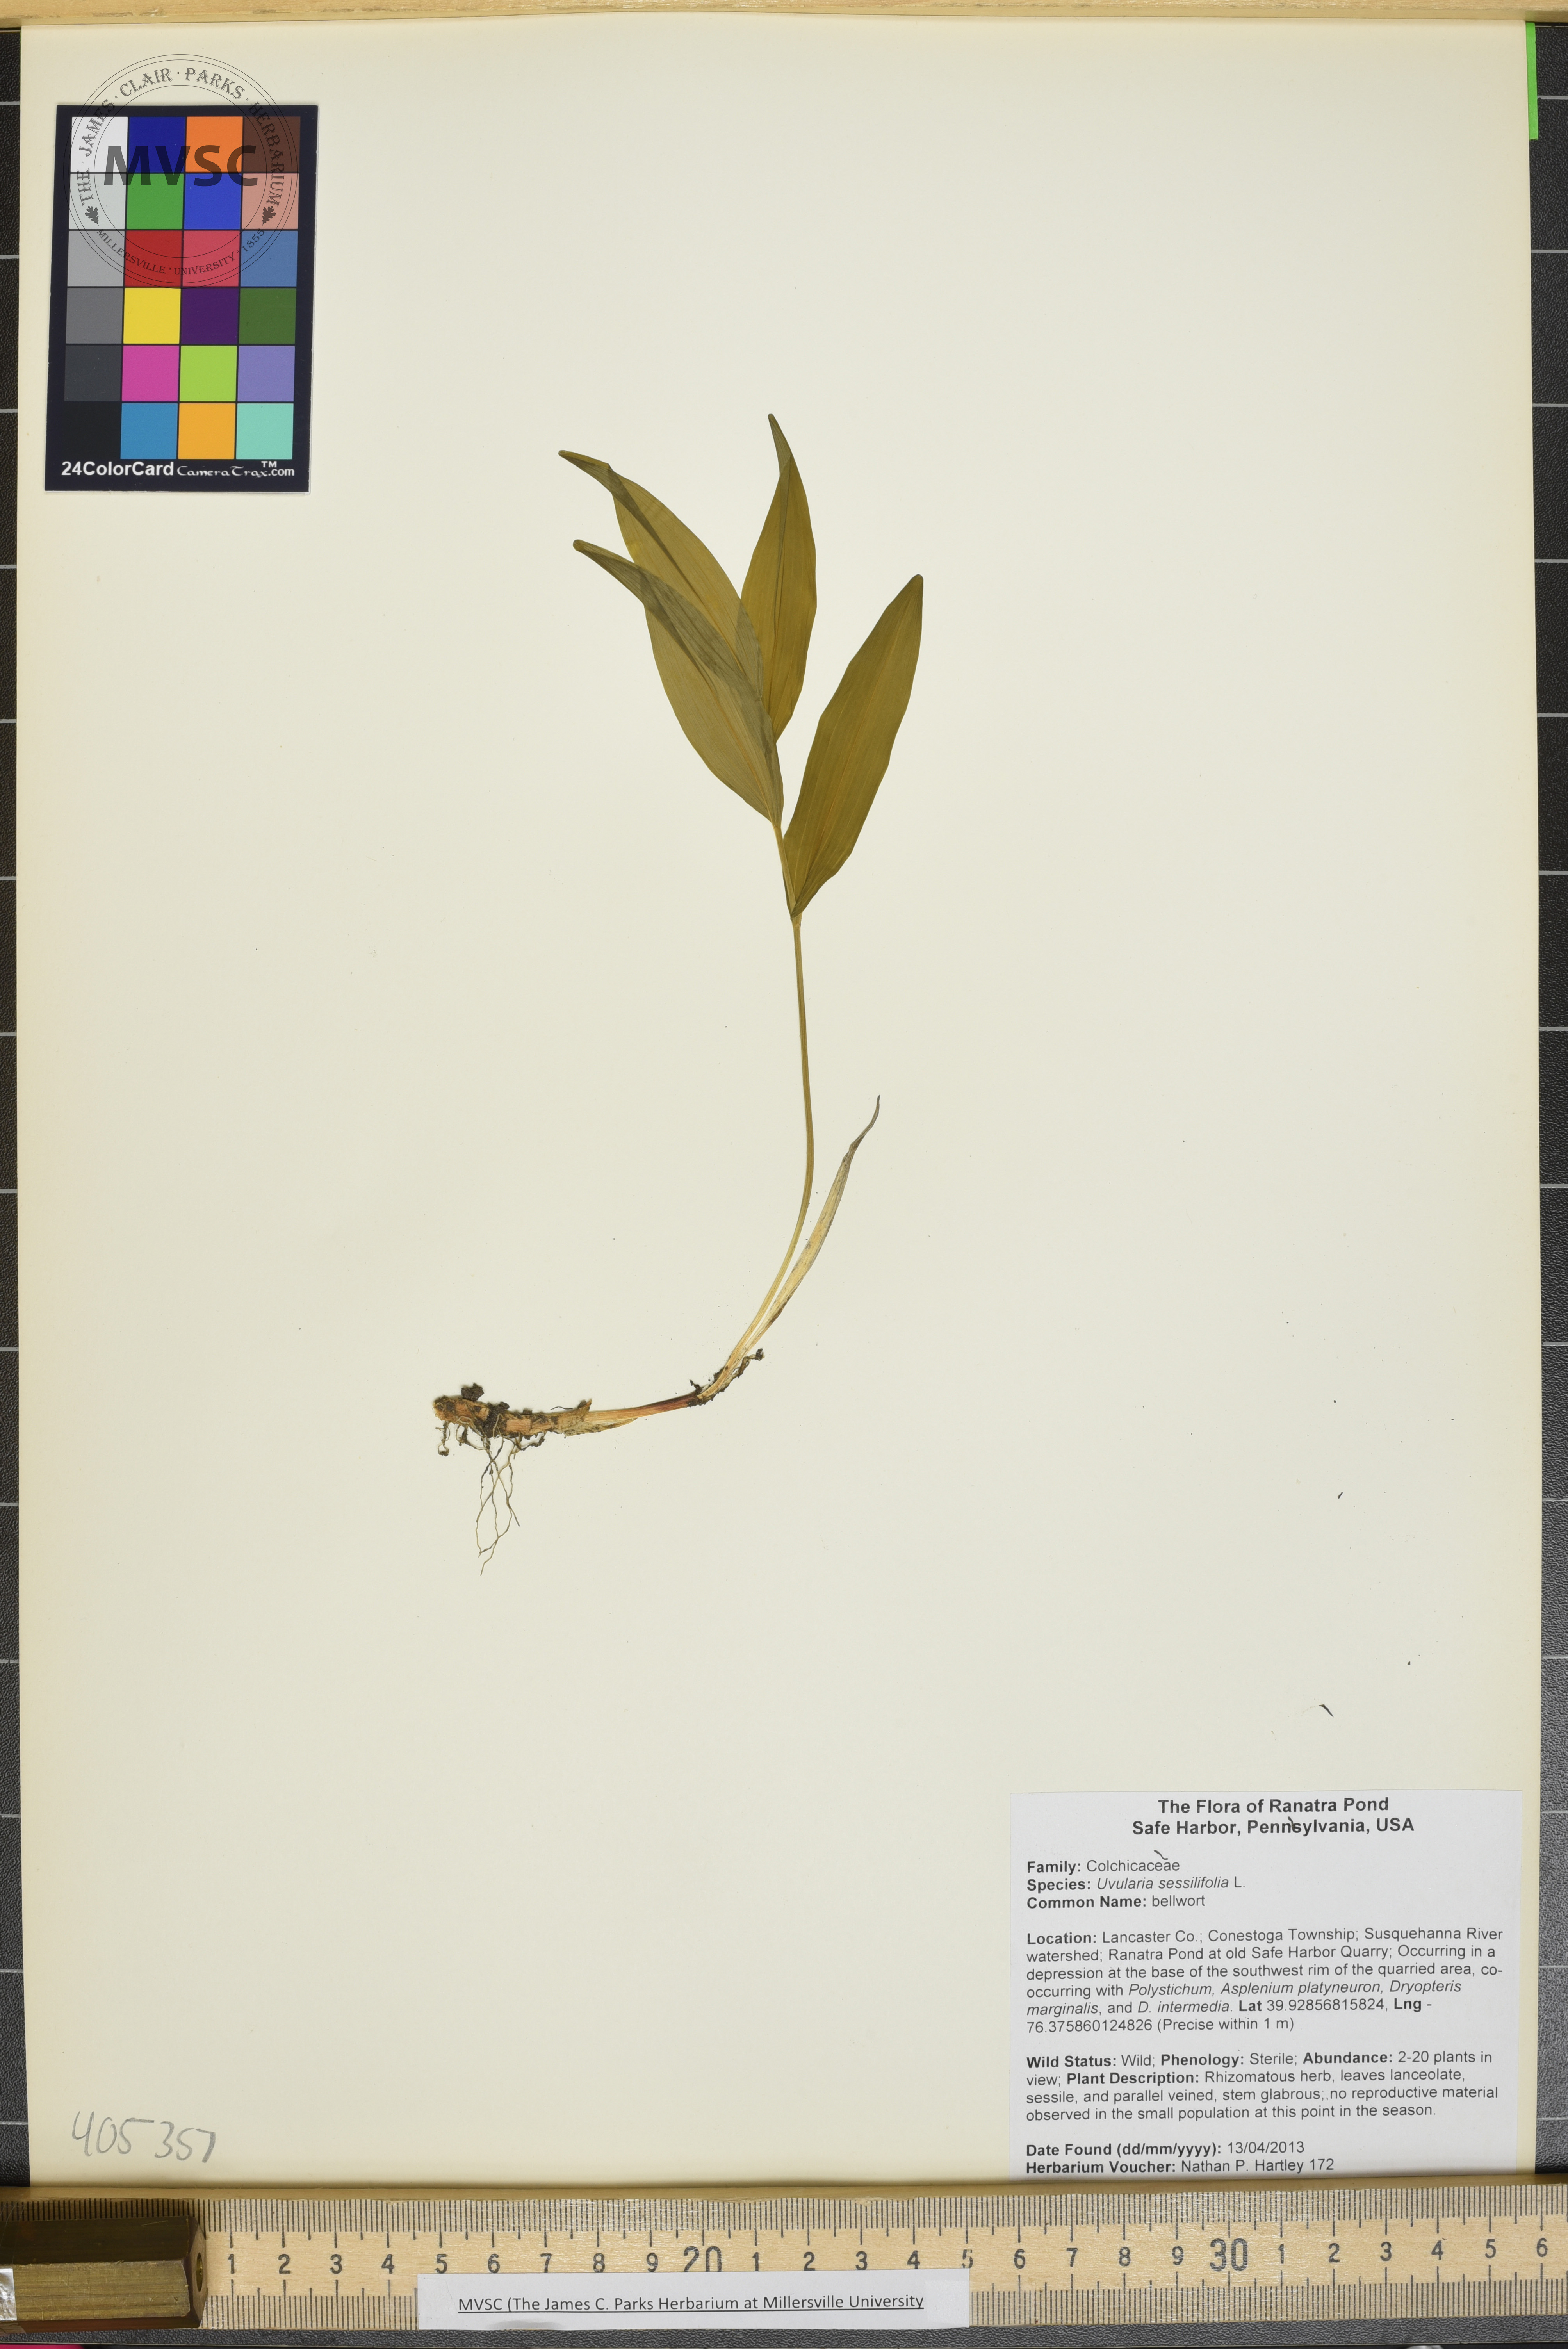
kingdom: Plantae
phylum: Tracheophyta
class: Liliopsida
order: Liliales
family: Colchicaceae
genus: Uvularia
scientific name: Uvularia sessilifolia
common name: bellwort
